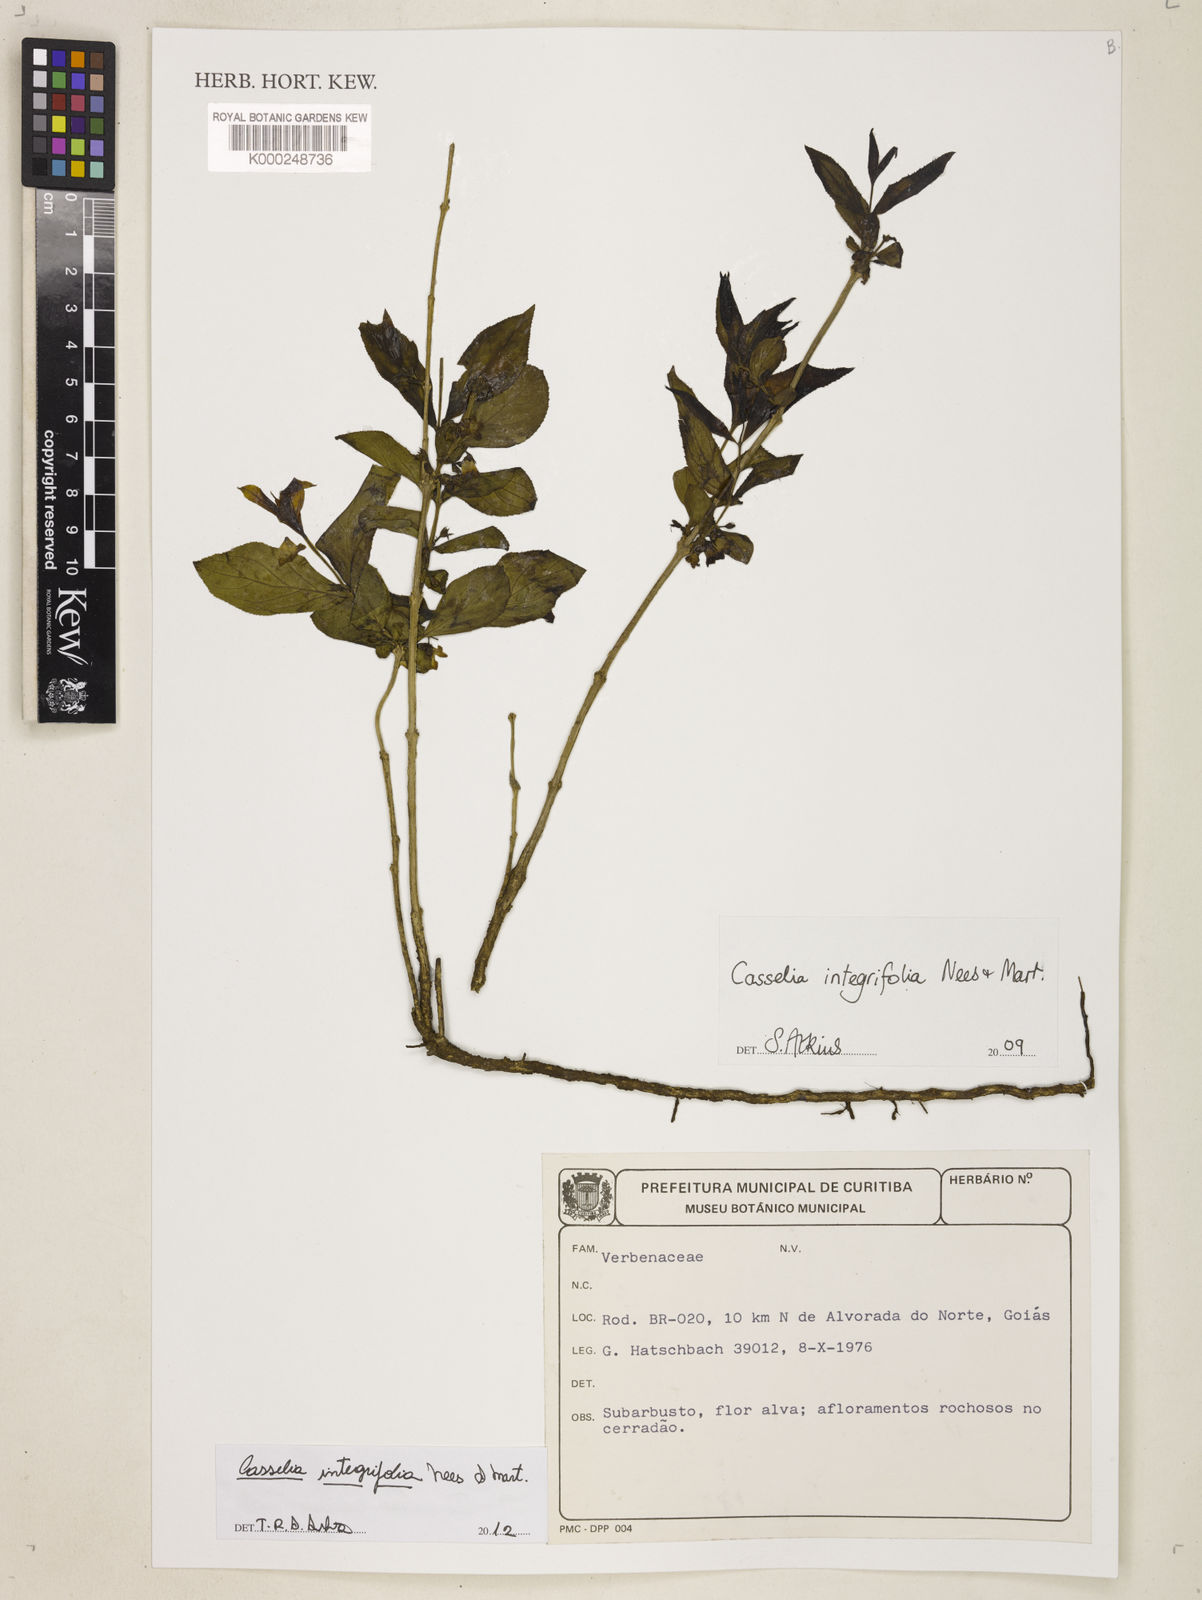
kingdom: Plantae
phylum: Tracheophyta
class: Magnoliopsida
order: Lamiales
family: Verbenaceae
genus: Casselia
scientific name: Casselia integrifolia
